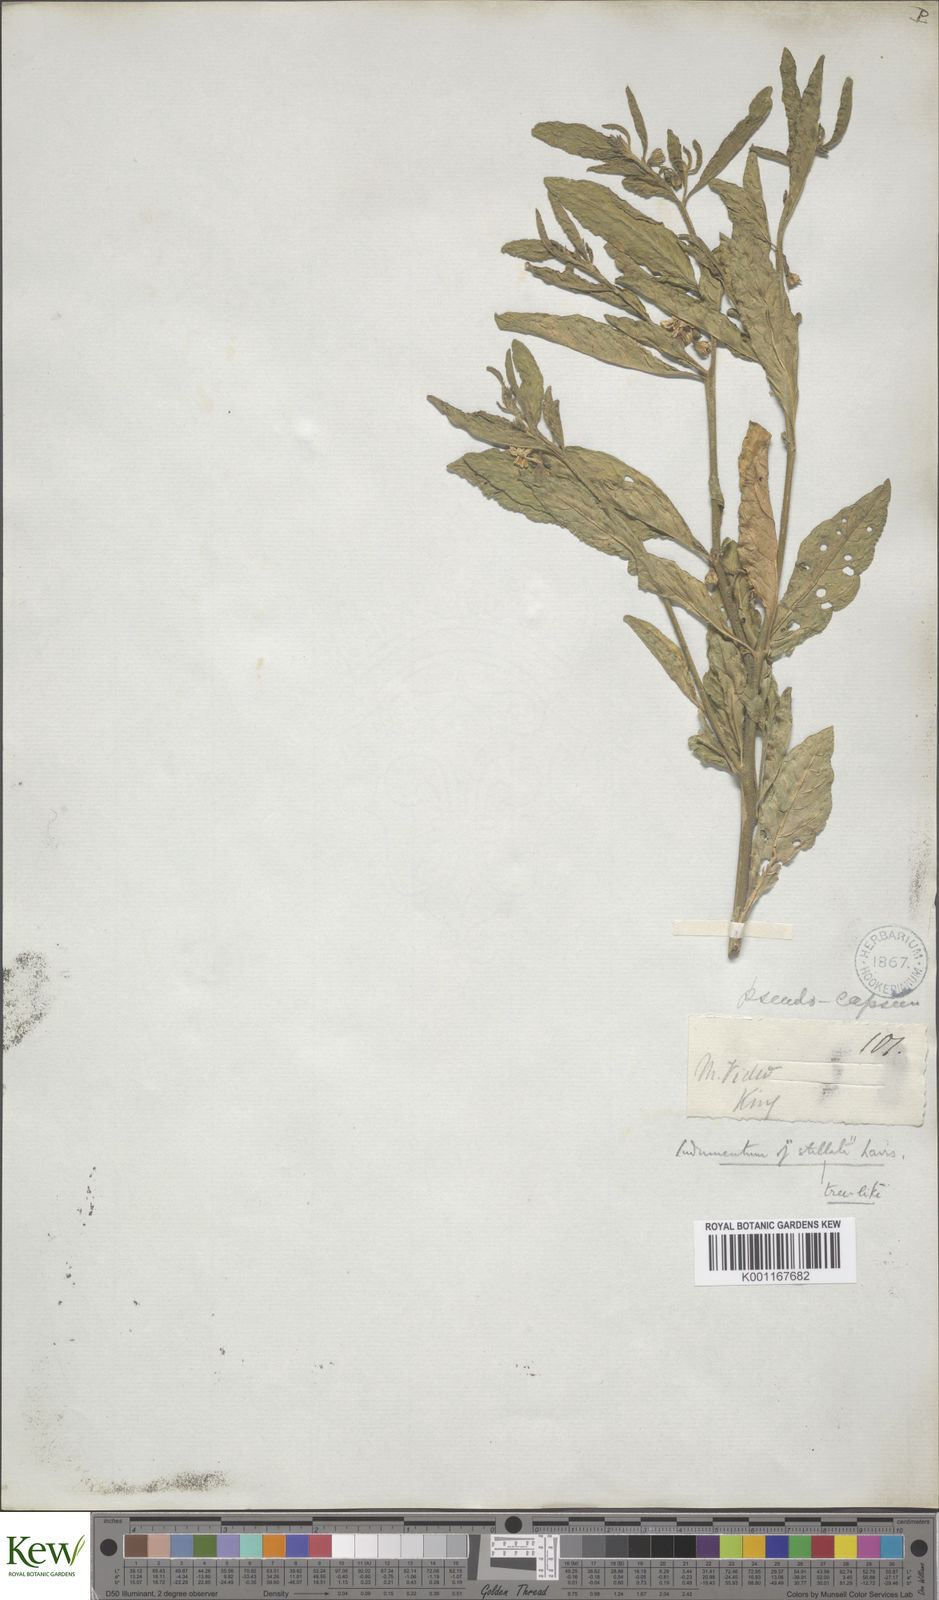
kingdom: Plantae
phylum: Tracheophyta
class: Magnoliopsida
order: Solanales
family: Solanaceae
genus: Solanum
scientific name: Solanum pseudocapsicum
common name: Jerusalem cherry
